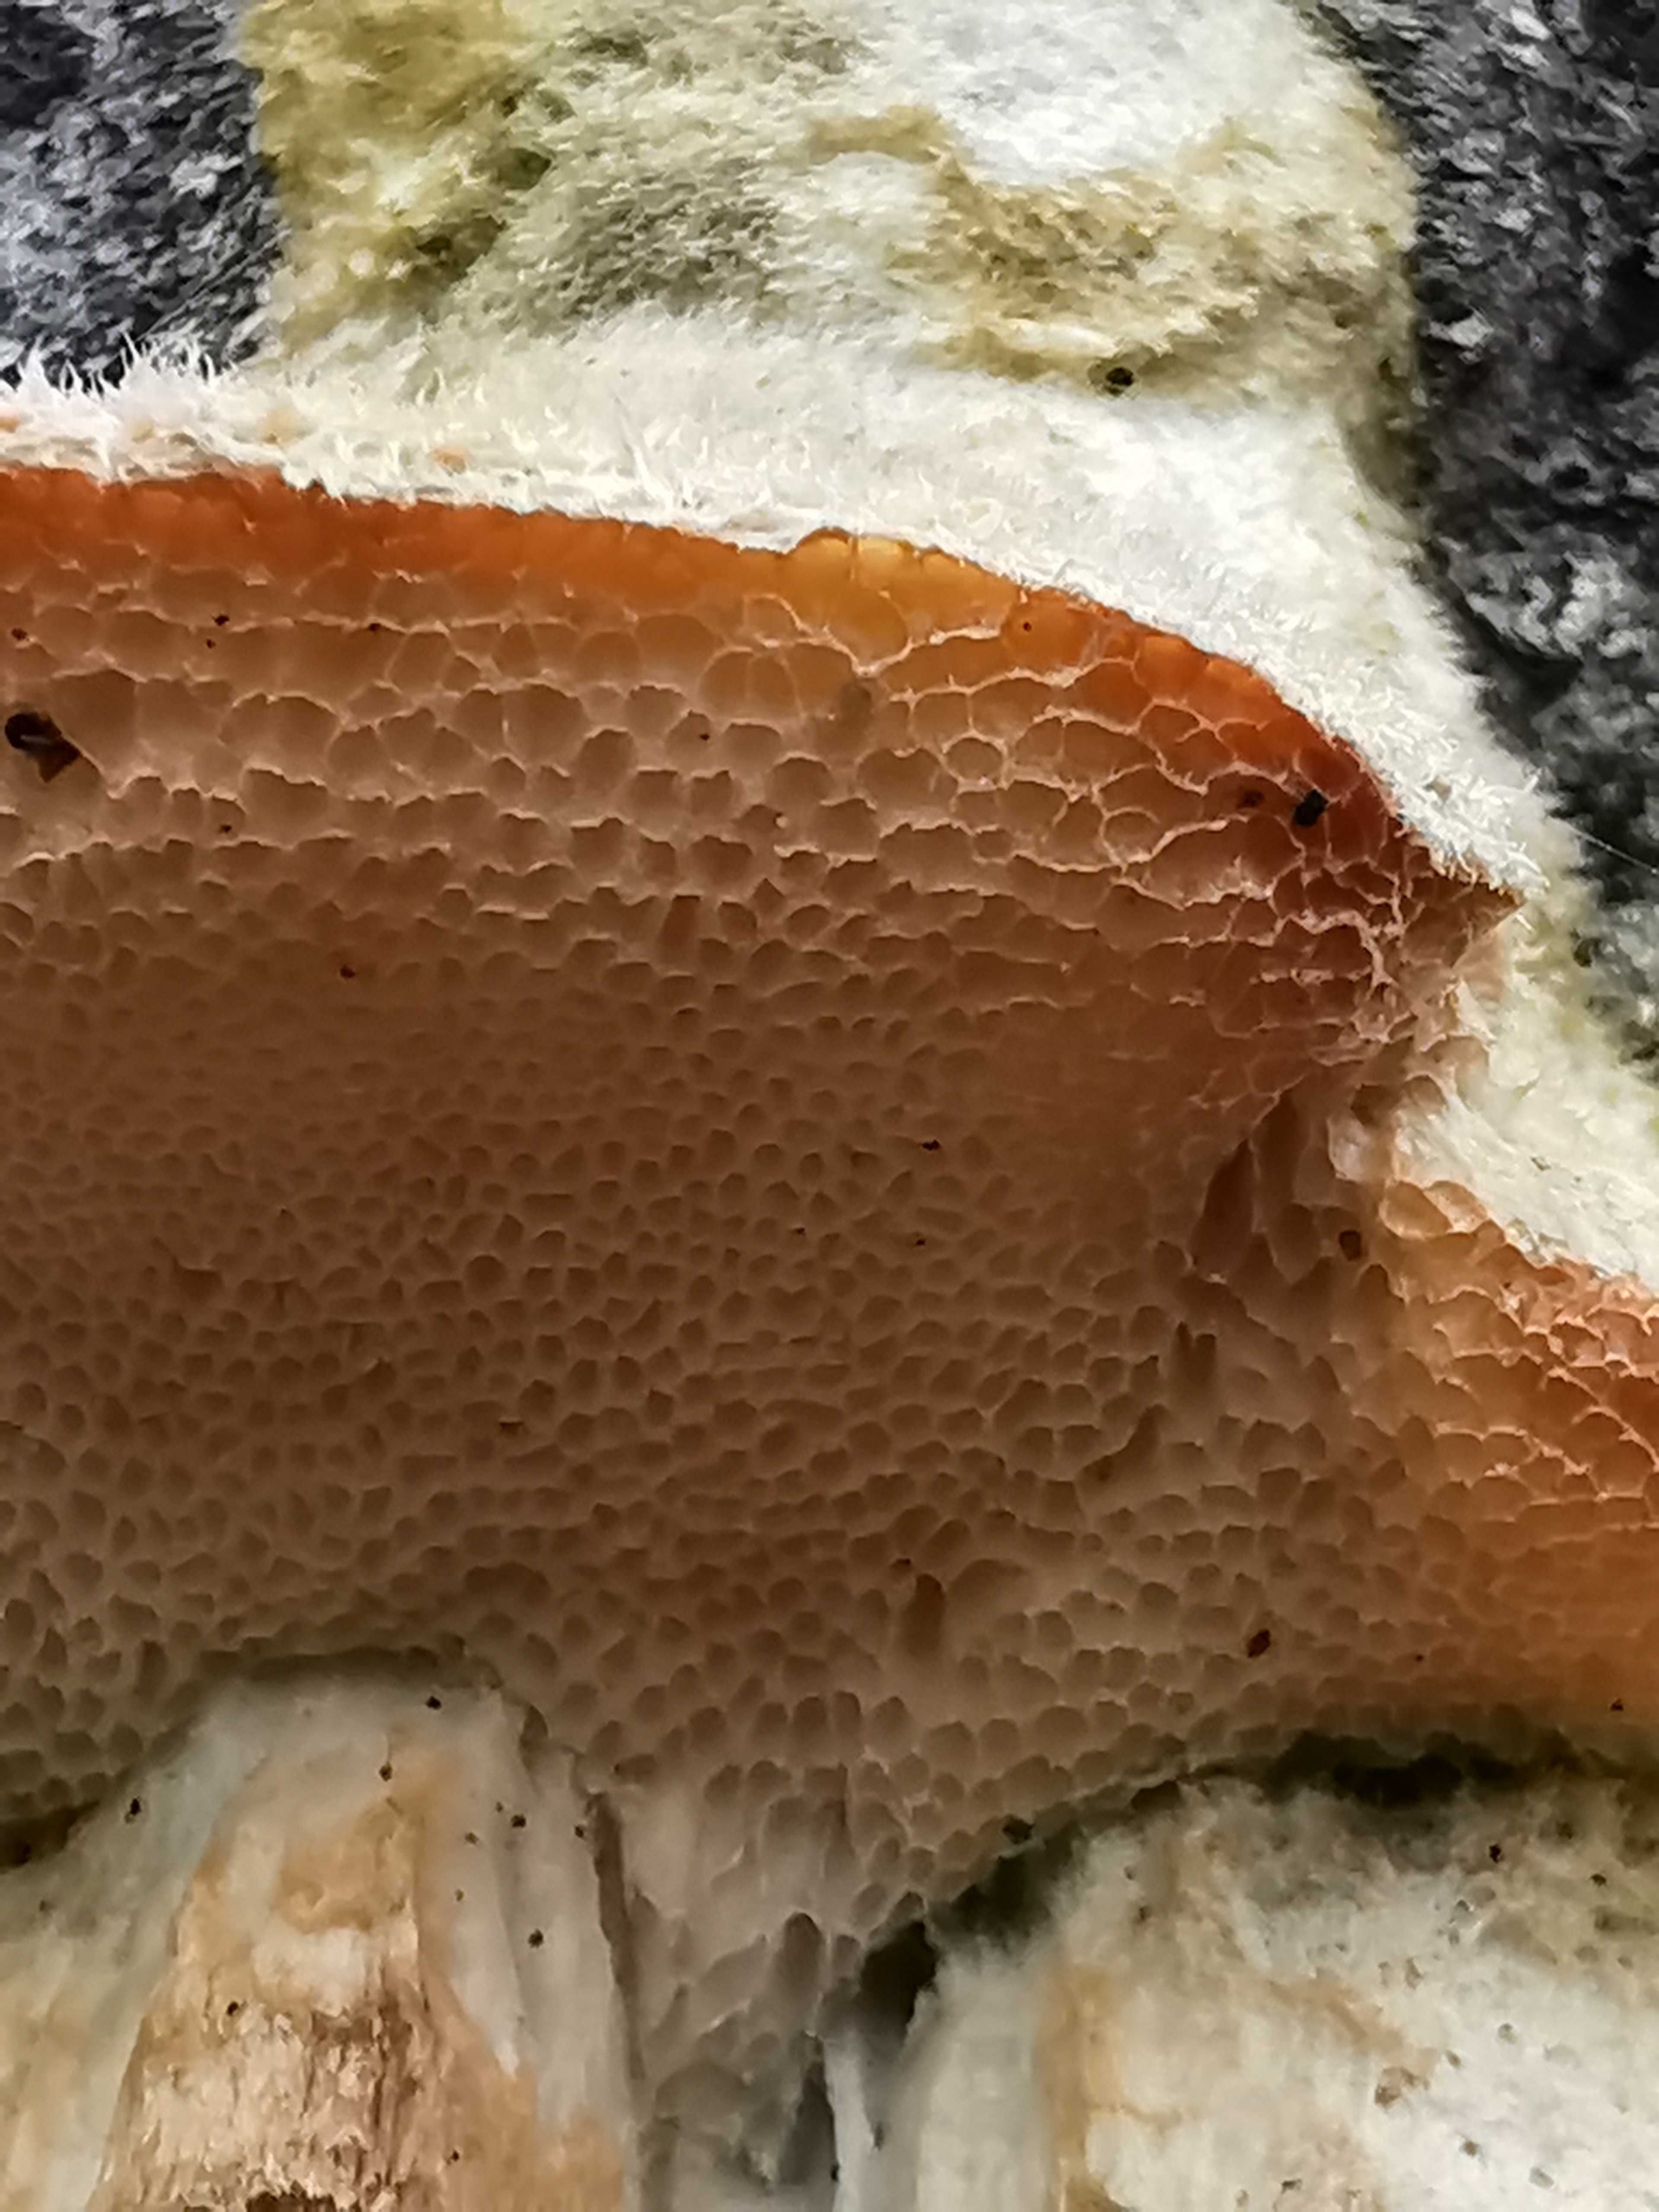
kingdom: Fungi
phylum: Basidiomycota
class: Agaricomycetes
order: Polyporales
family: Polyporaceae
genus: Diplomitoporus
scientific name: Diplomitoporus flavescens
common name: fyrre-elastikporesvamp
